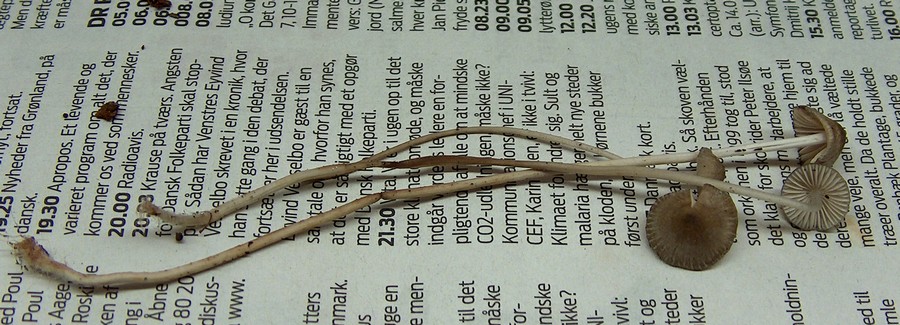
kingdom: Fungi
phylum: Basidiomycota
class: Agaricomycetes
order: Agaricales
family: Mycenaceae
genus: Mycena
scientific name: Mycena vitilis
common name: blankstokket huesvamp
